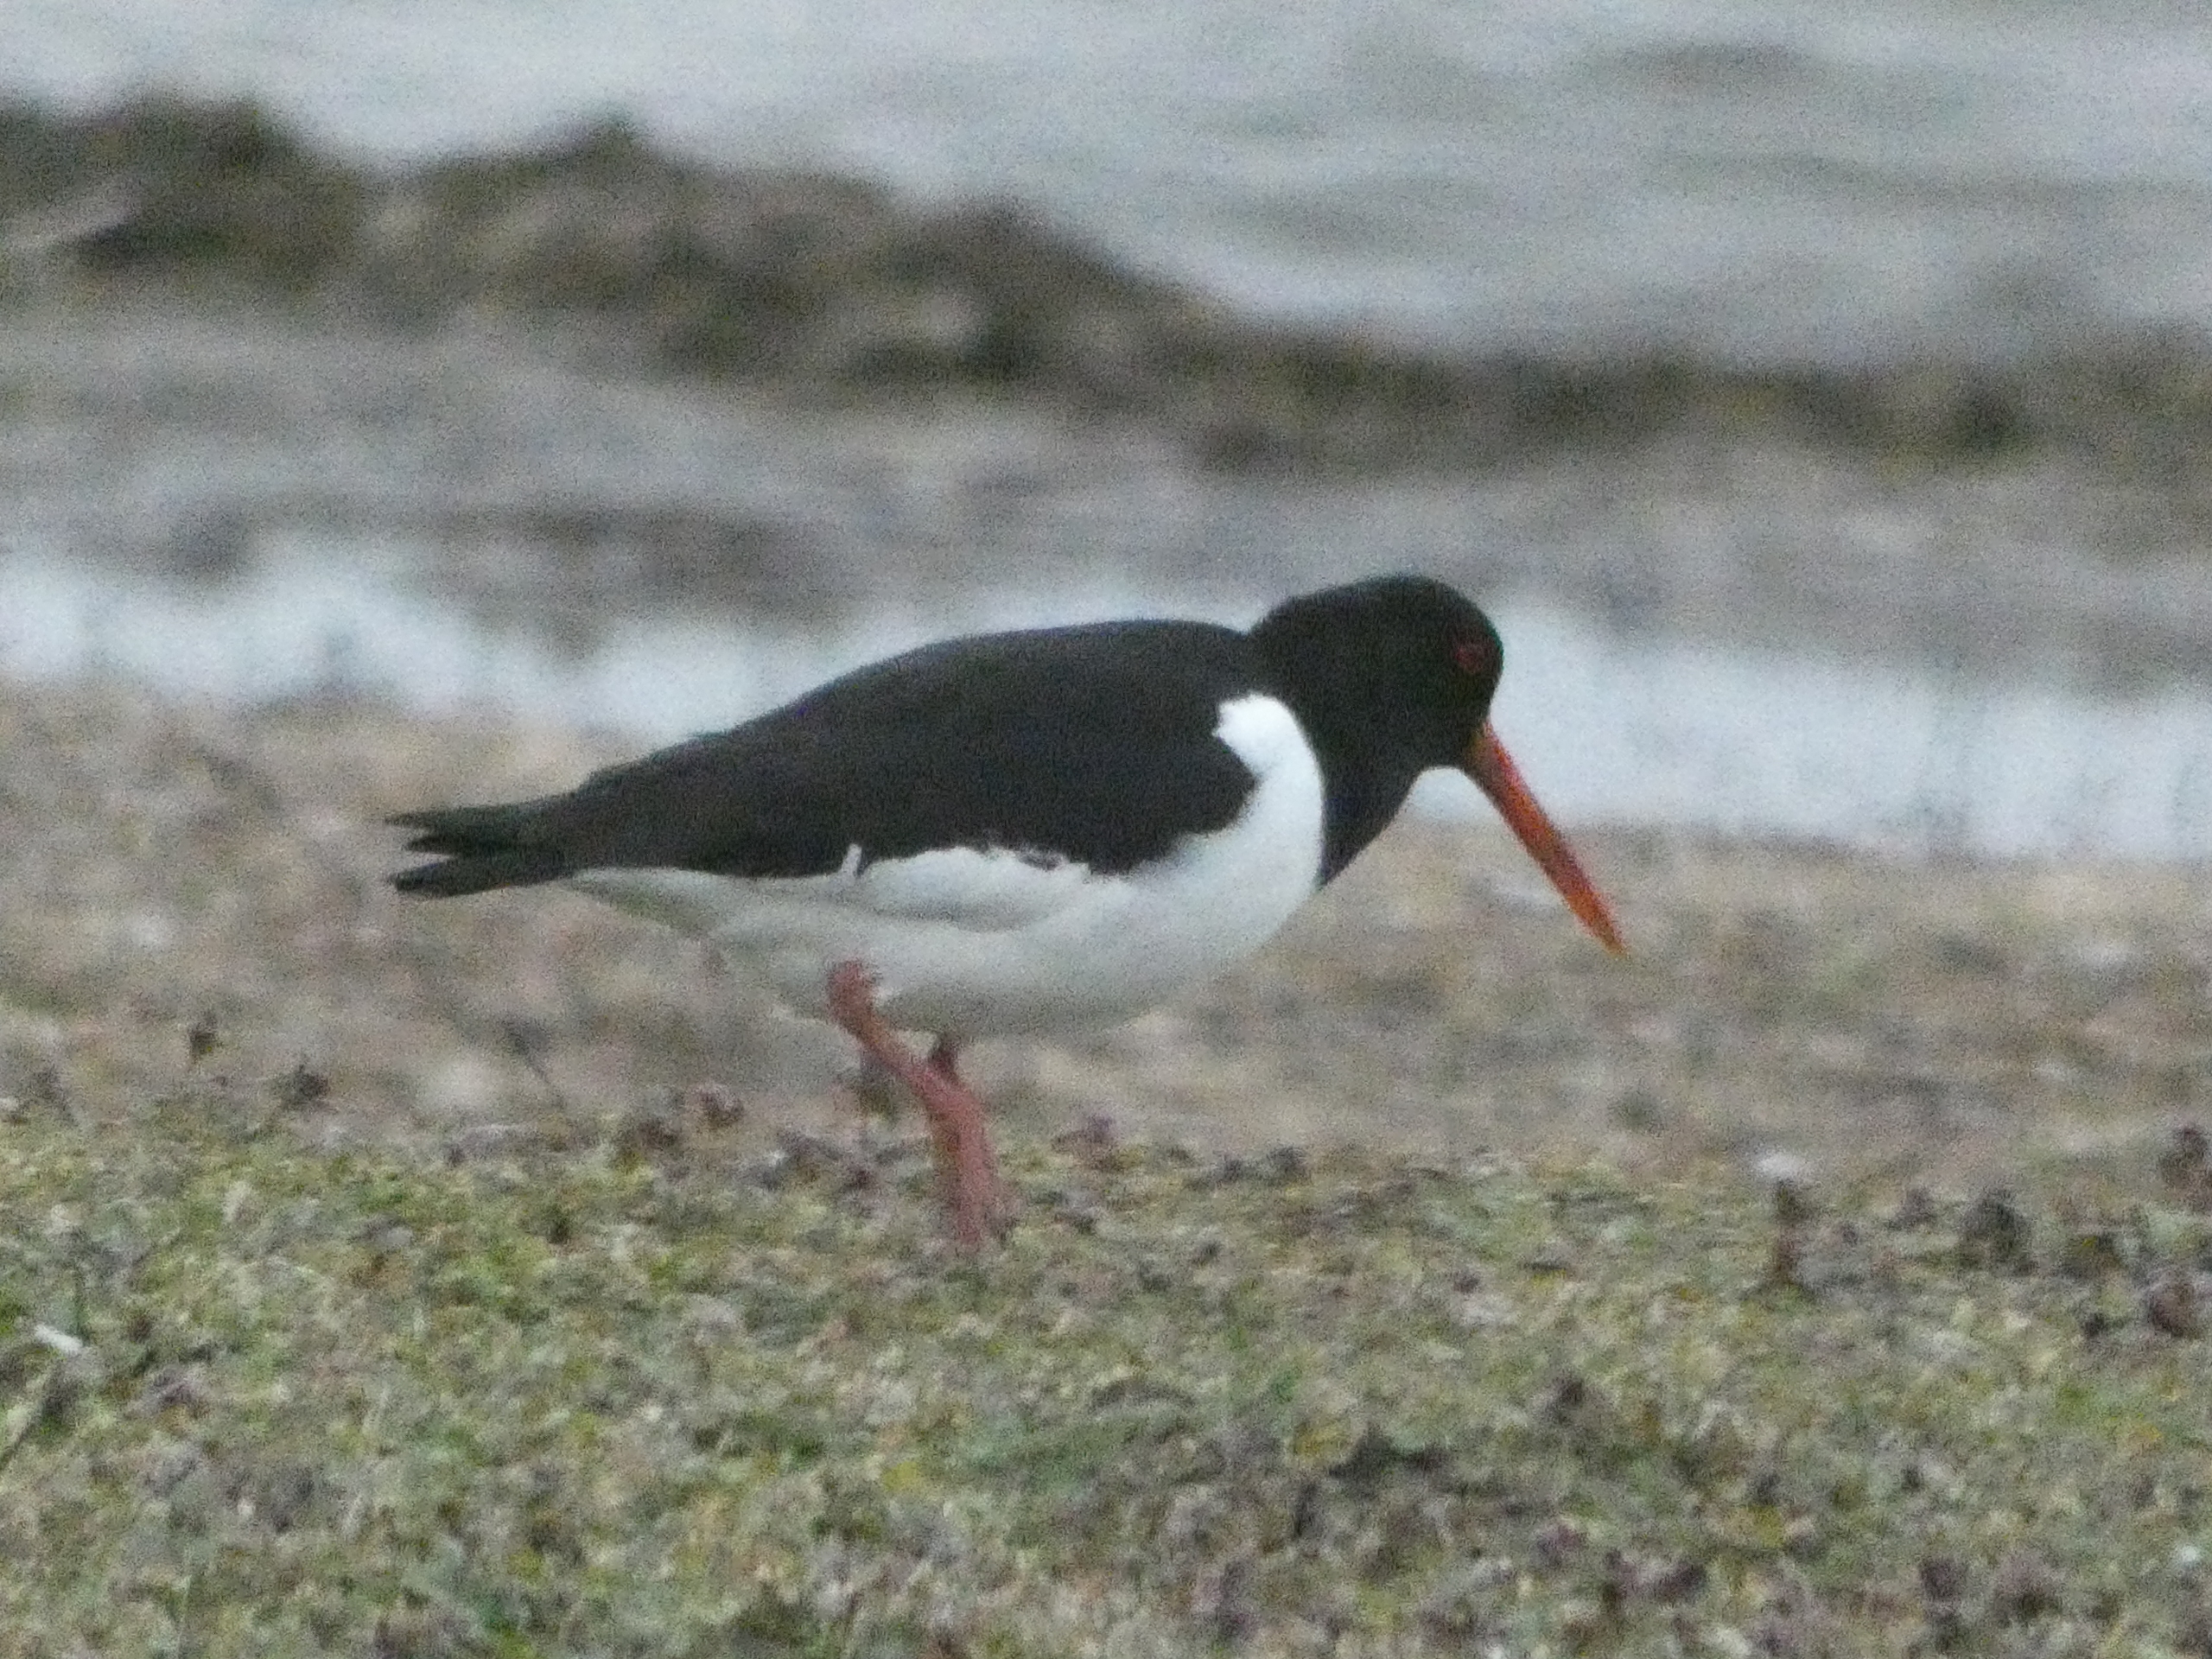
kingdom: Animalia
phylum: Chordata
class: Aves
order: Charadriiformes
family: Haematopodidae
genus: Haematopus
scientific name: Haematopus ostralegus
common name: Strandskade
